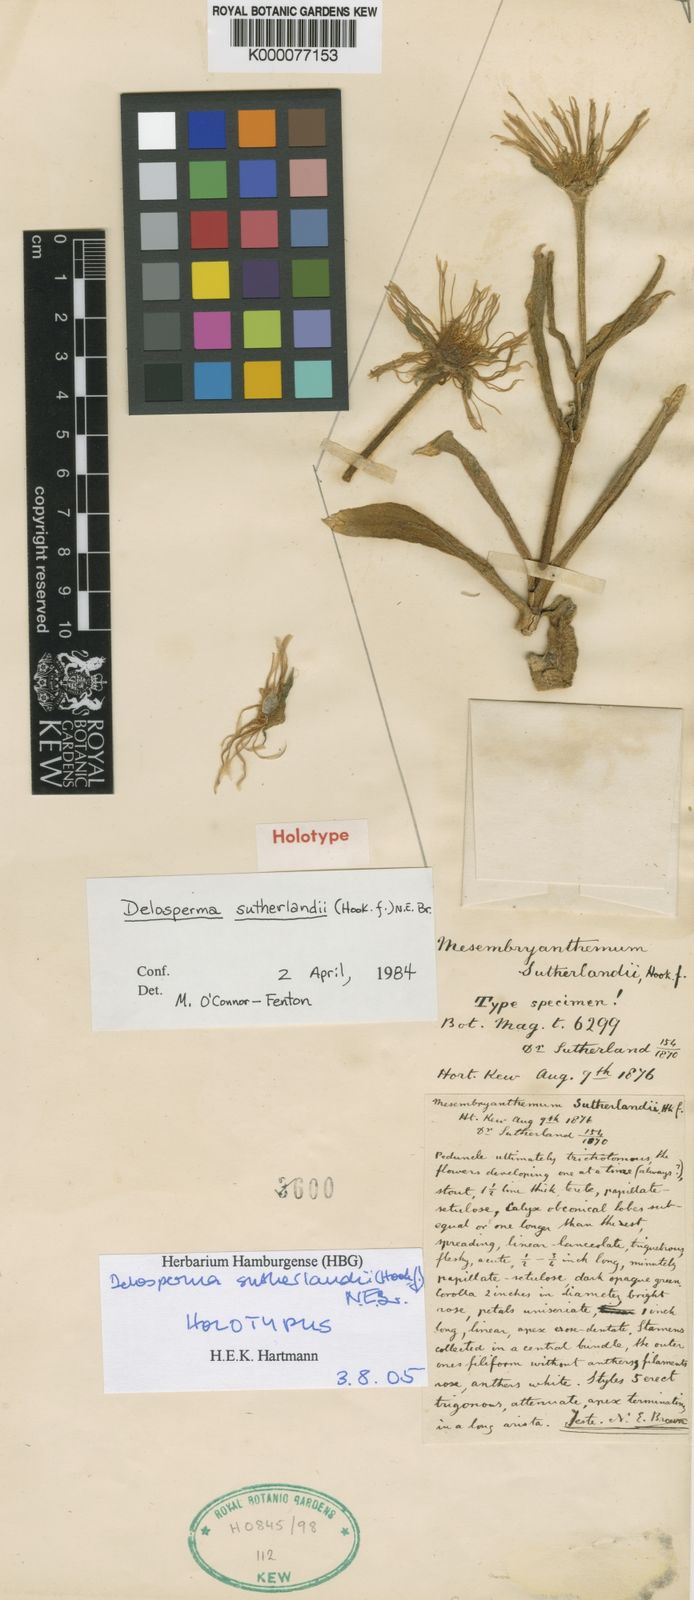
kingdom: Plantae
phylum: Tracheophyta
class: Magnoliopsida
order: Caryophyllales
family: Aizoaceae
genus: Delosperma
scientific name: Delosperma sutherlandii
